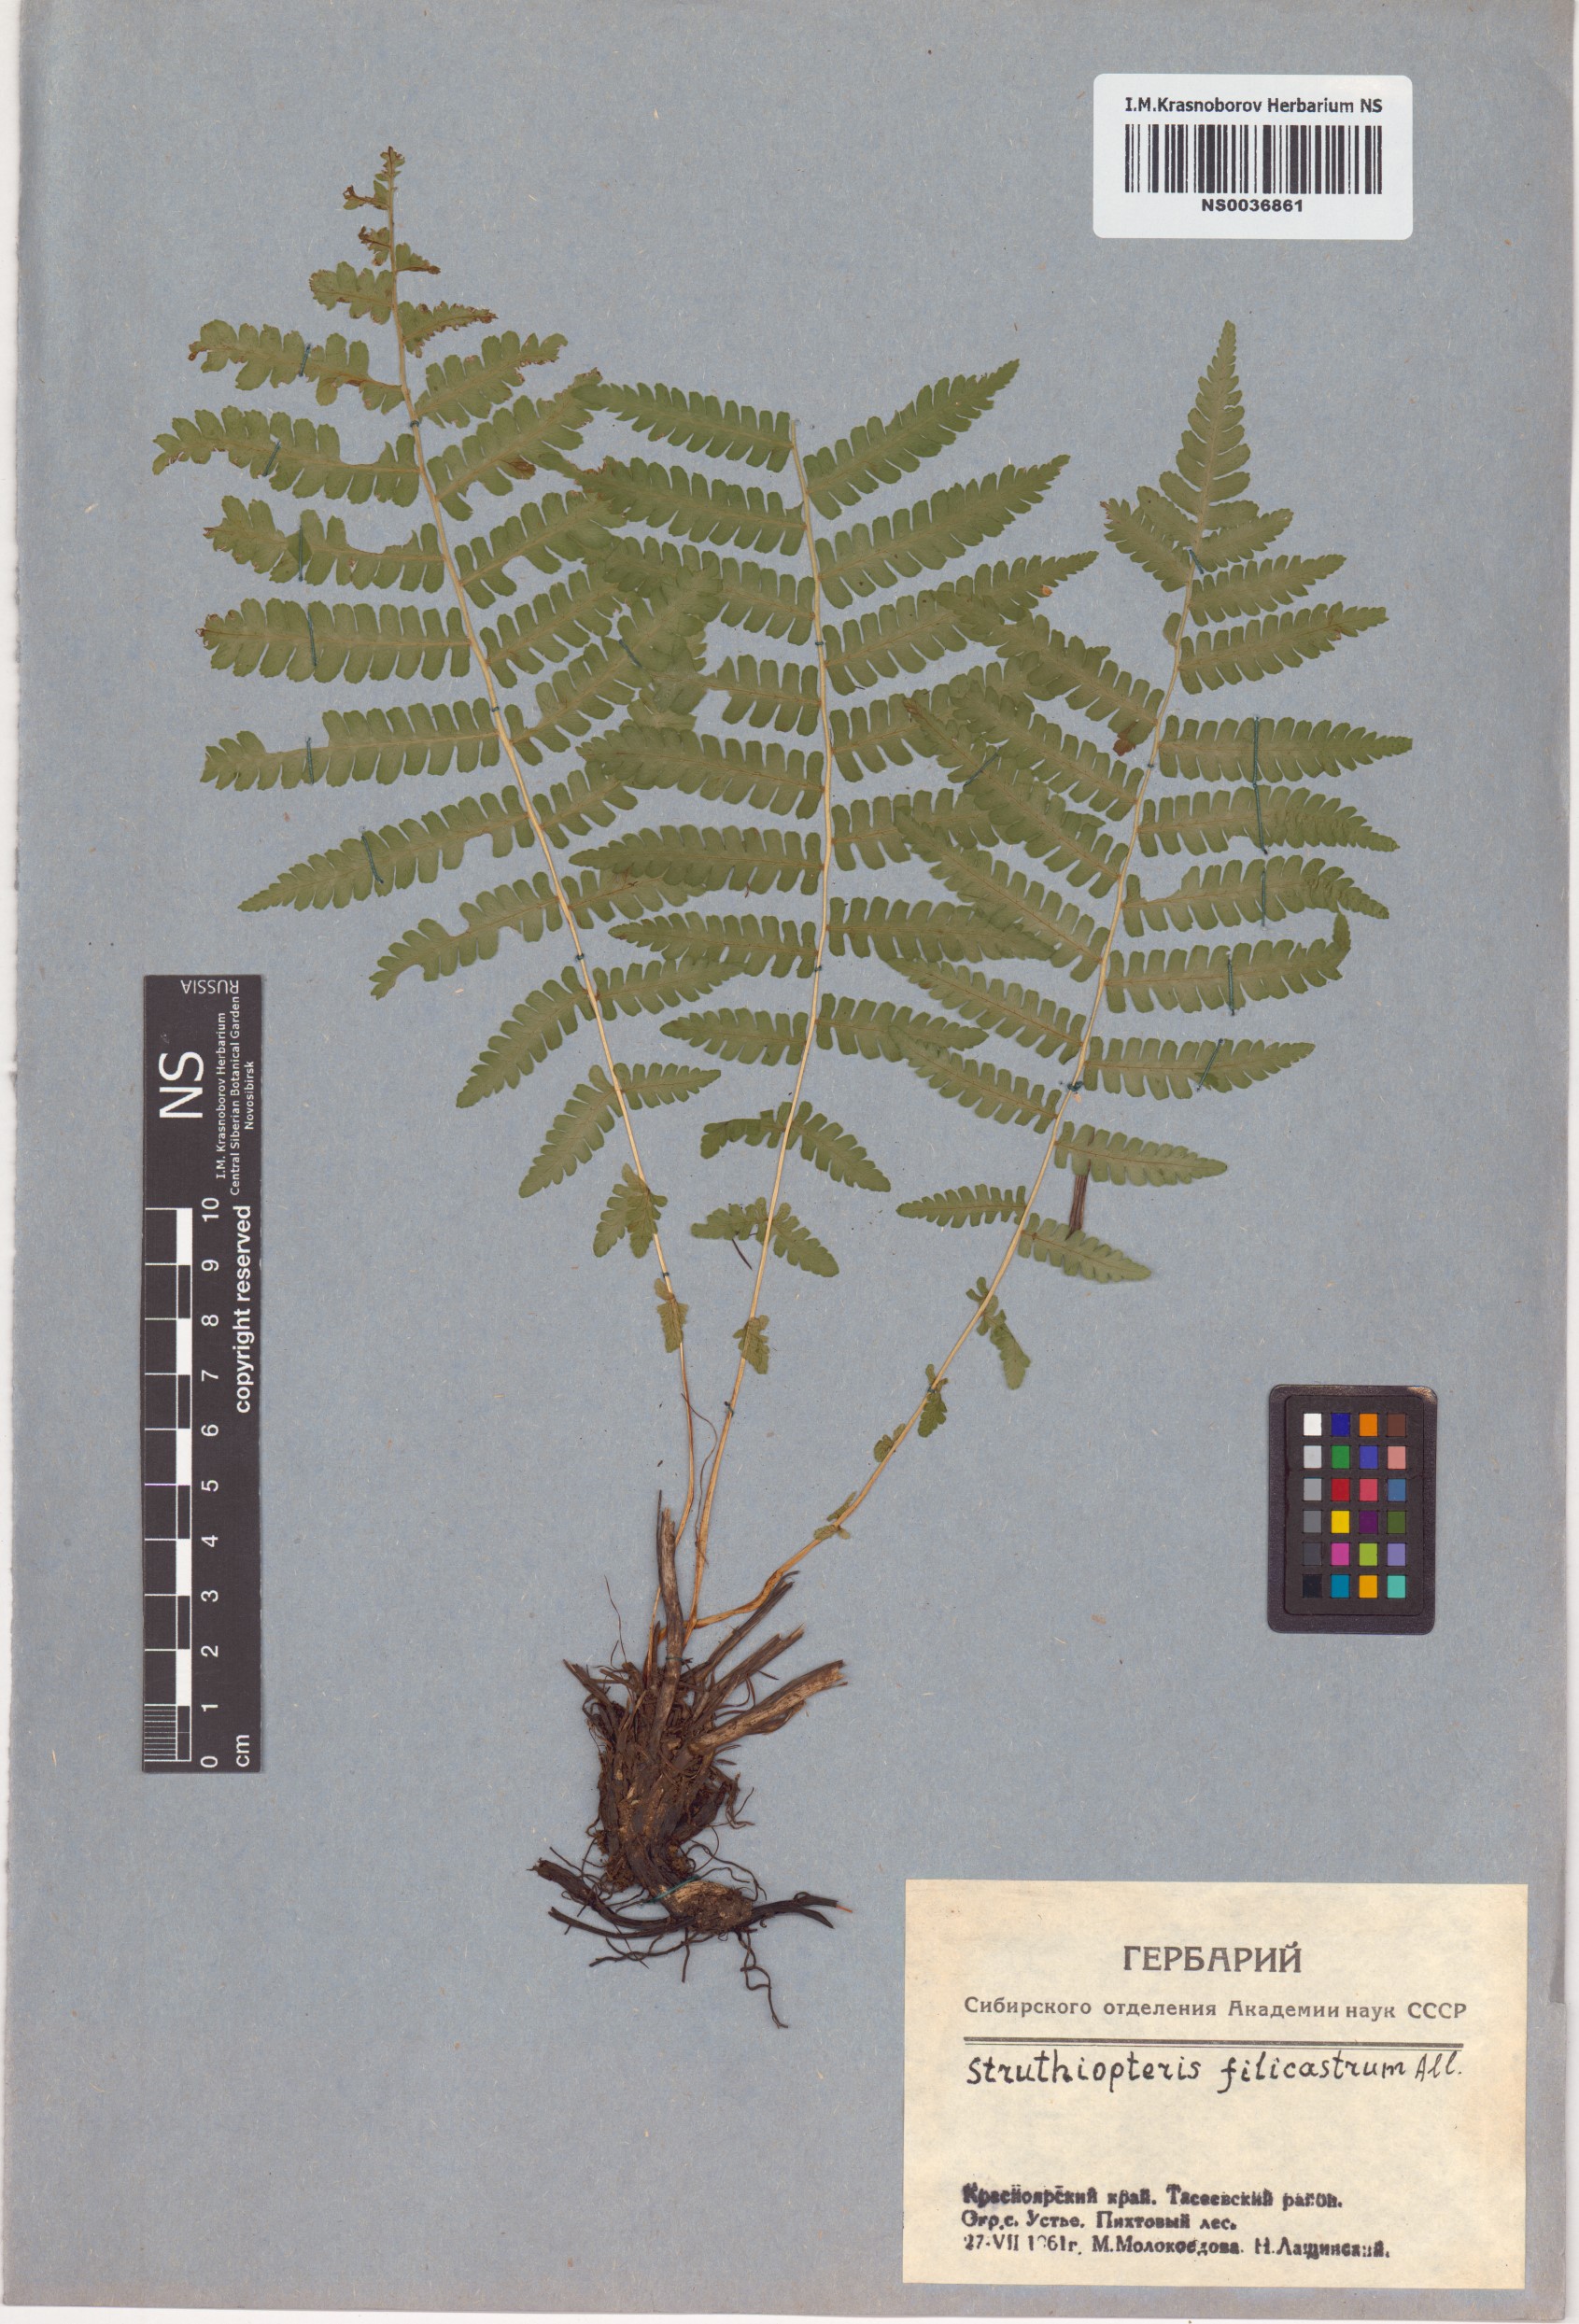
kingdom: Plantae
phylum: Tracheophyta
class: Polypodiopsida
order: Polypodiales
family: Onocleaceae
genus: Matteuccia
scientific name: Matteuccia struthiopteris
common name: Ostrich fern
